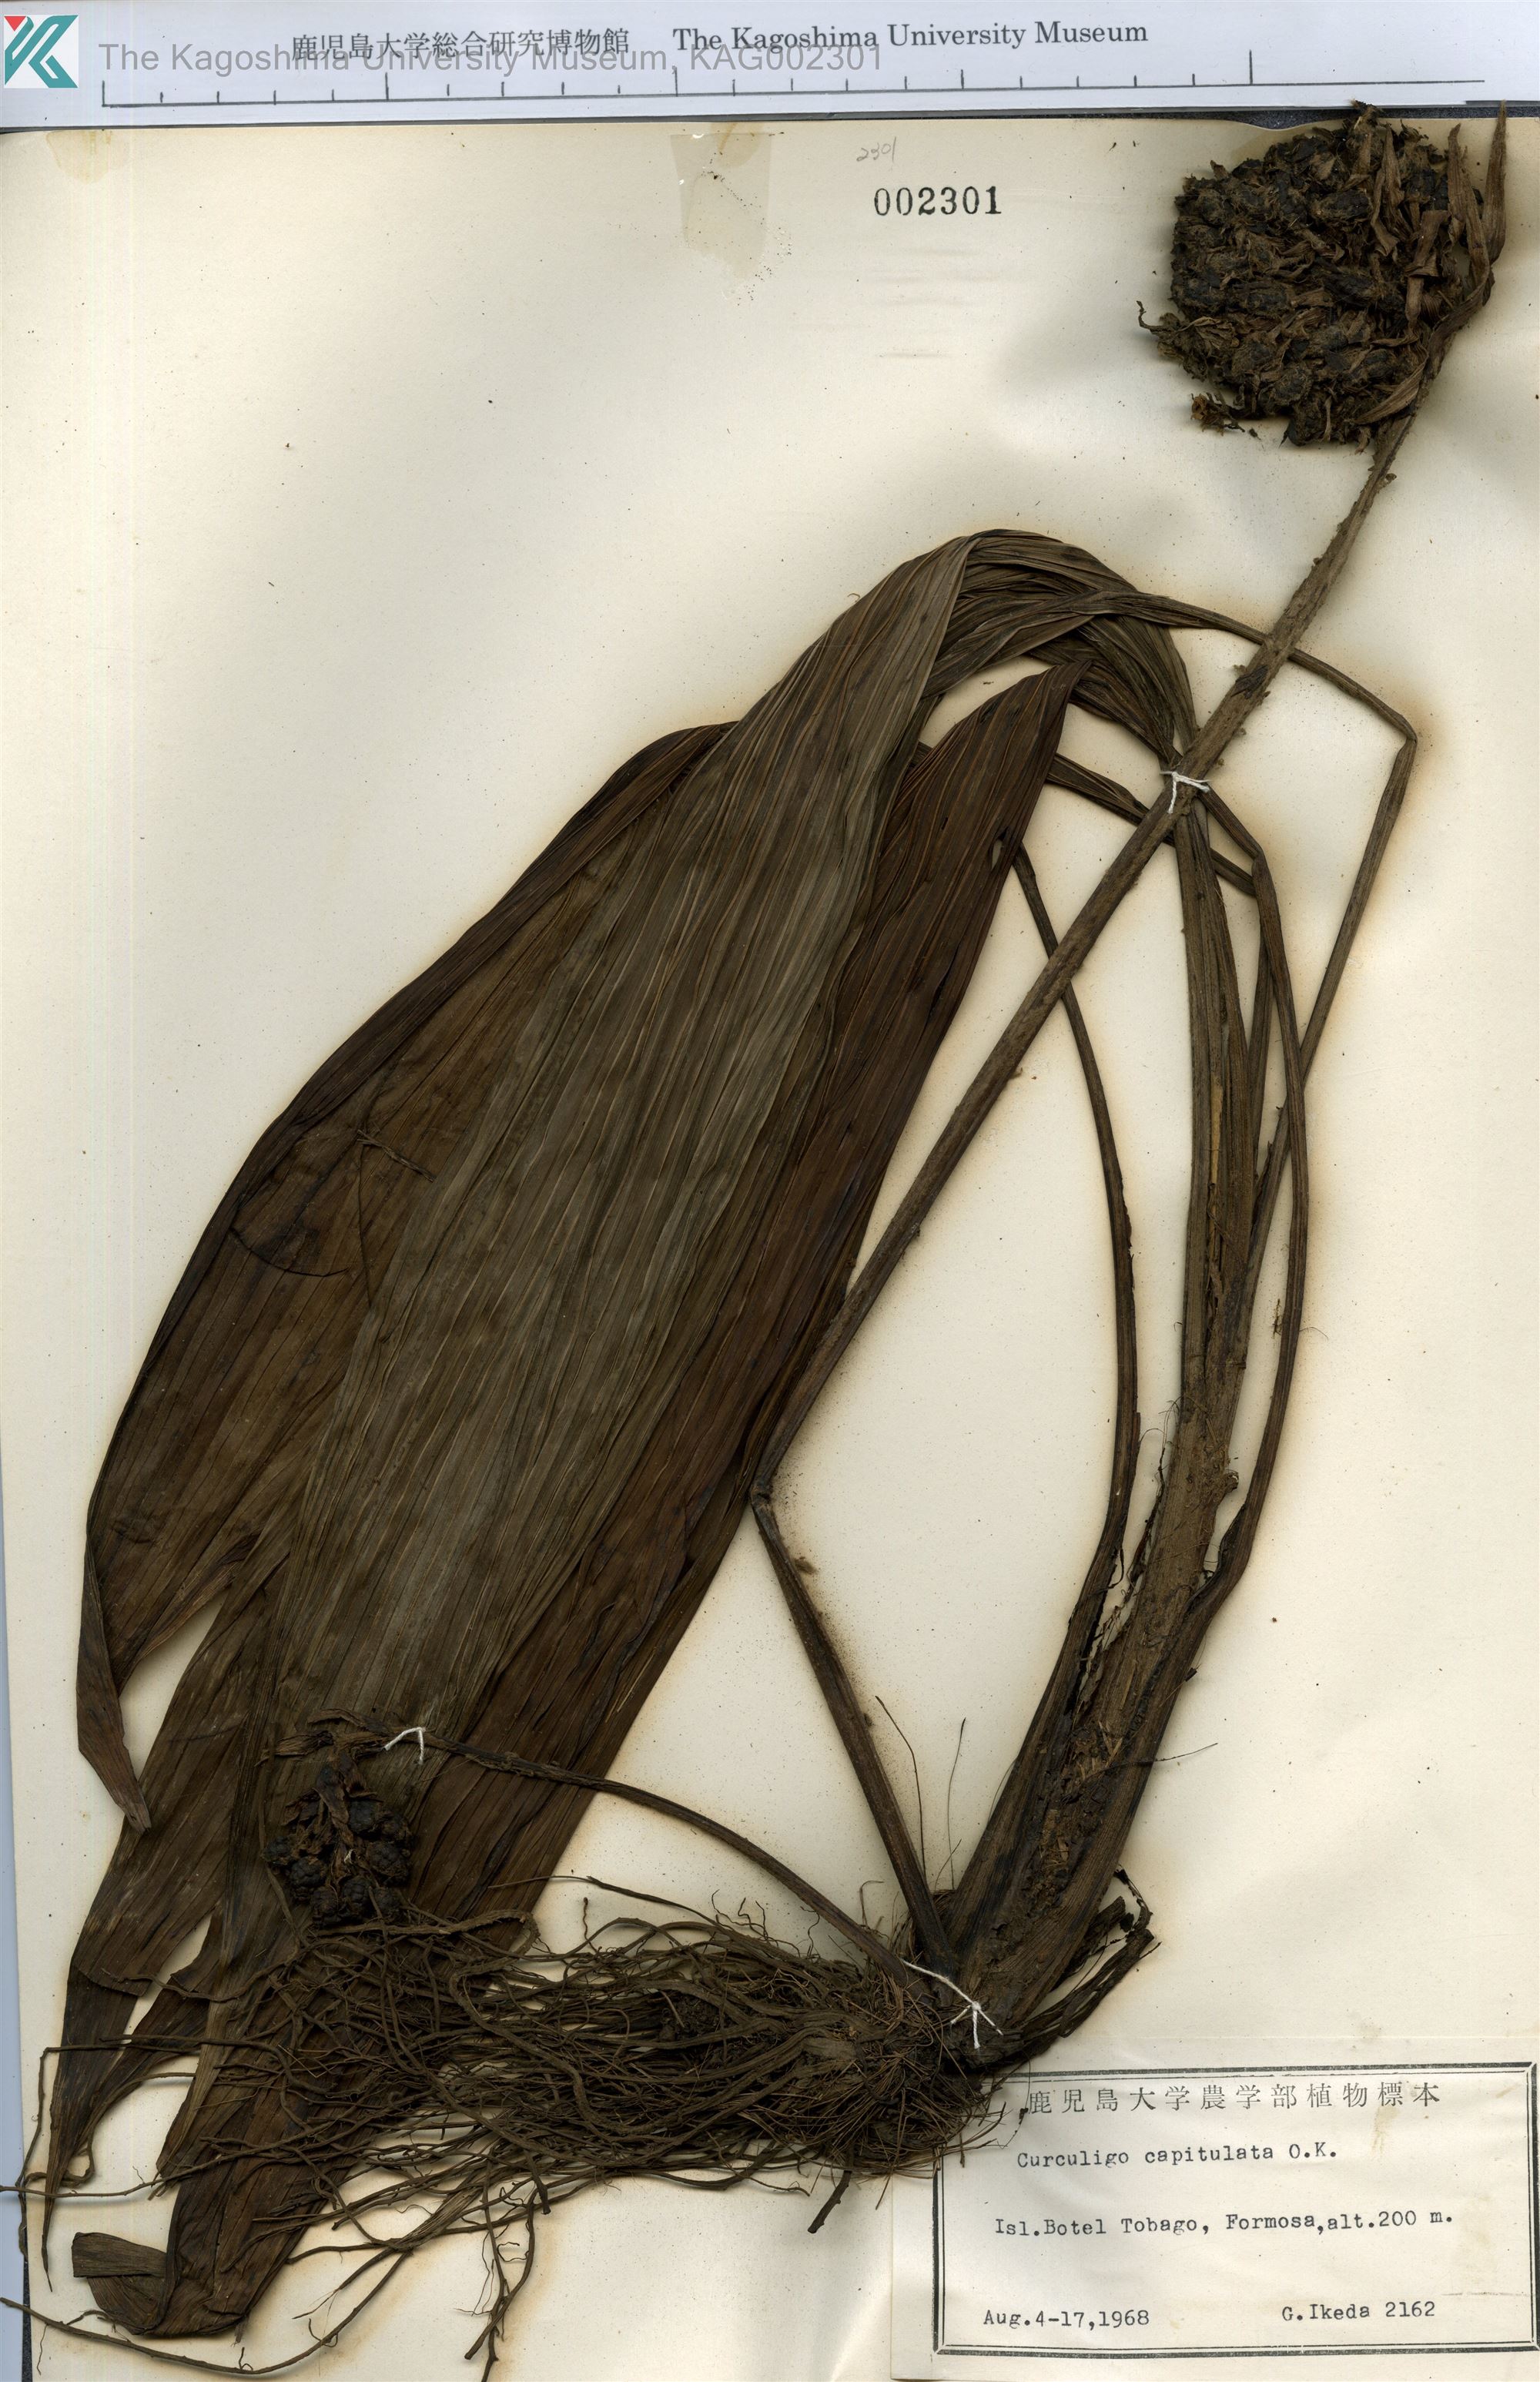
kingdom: Plantae
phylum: Tracheophyta
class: Liliopsida
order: Asparagales
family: Hypoxidaceae
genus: Curculigo
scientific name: Curculigo capitulata
